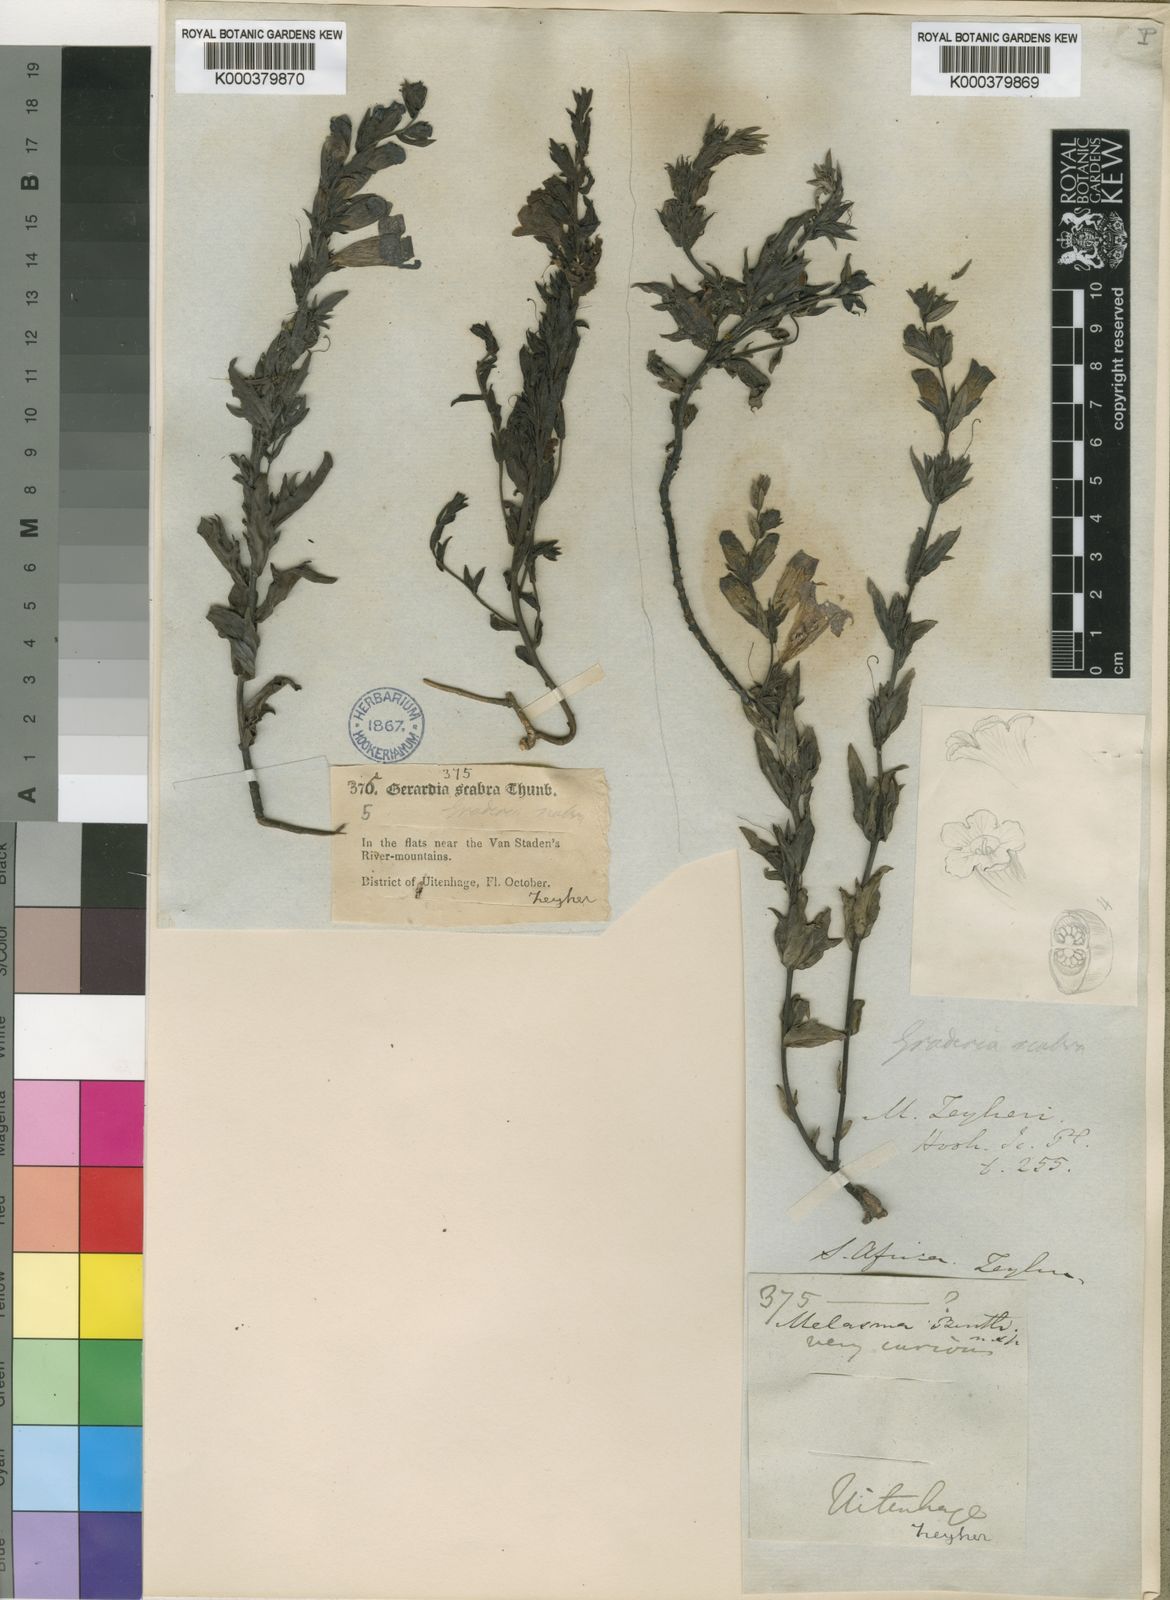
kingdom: Plantae
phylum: Tracheophyta
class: Magnoliopsida
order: Lamiales
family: Orobanchaceae
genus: Graderia
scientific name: Graderia scabra
